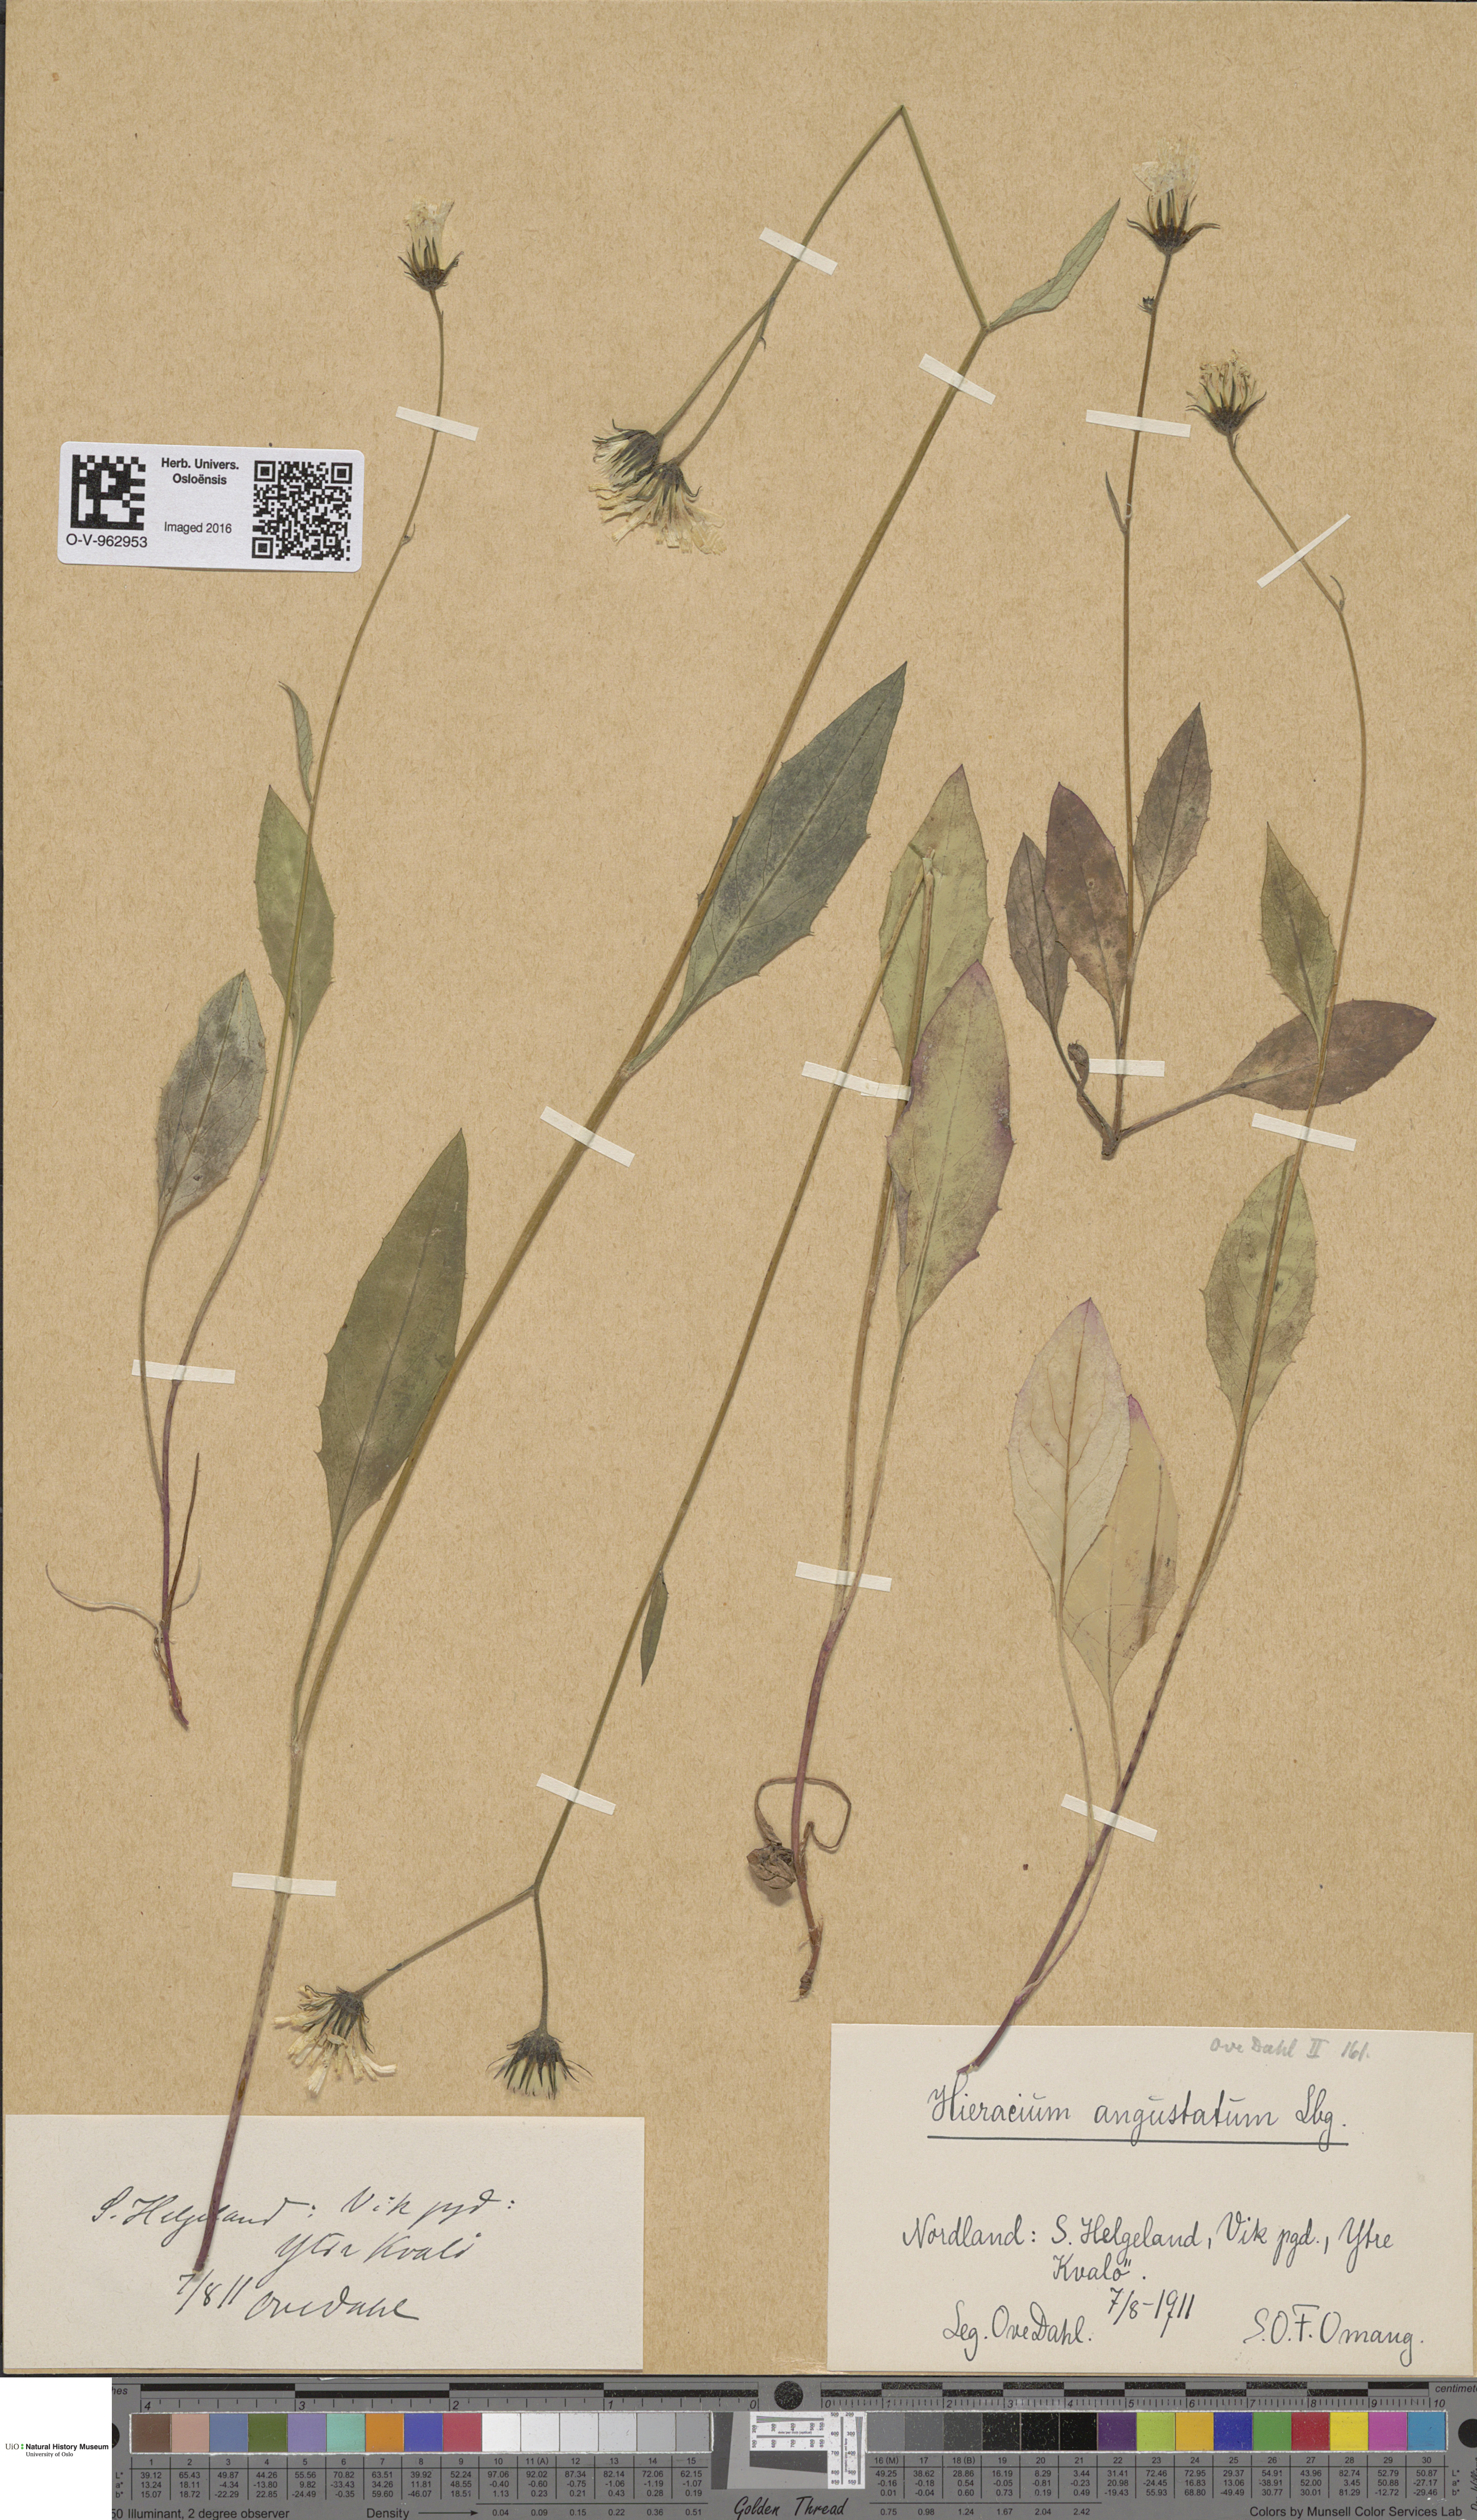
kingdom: Plantae
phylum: Tracheophyta
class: Magnoliopsida
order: Asterales
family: Asteraceae
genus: Hieracium
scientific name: Hieracium angustatum
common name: Lesser-leaved hawkweed
